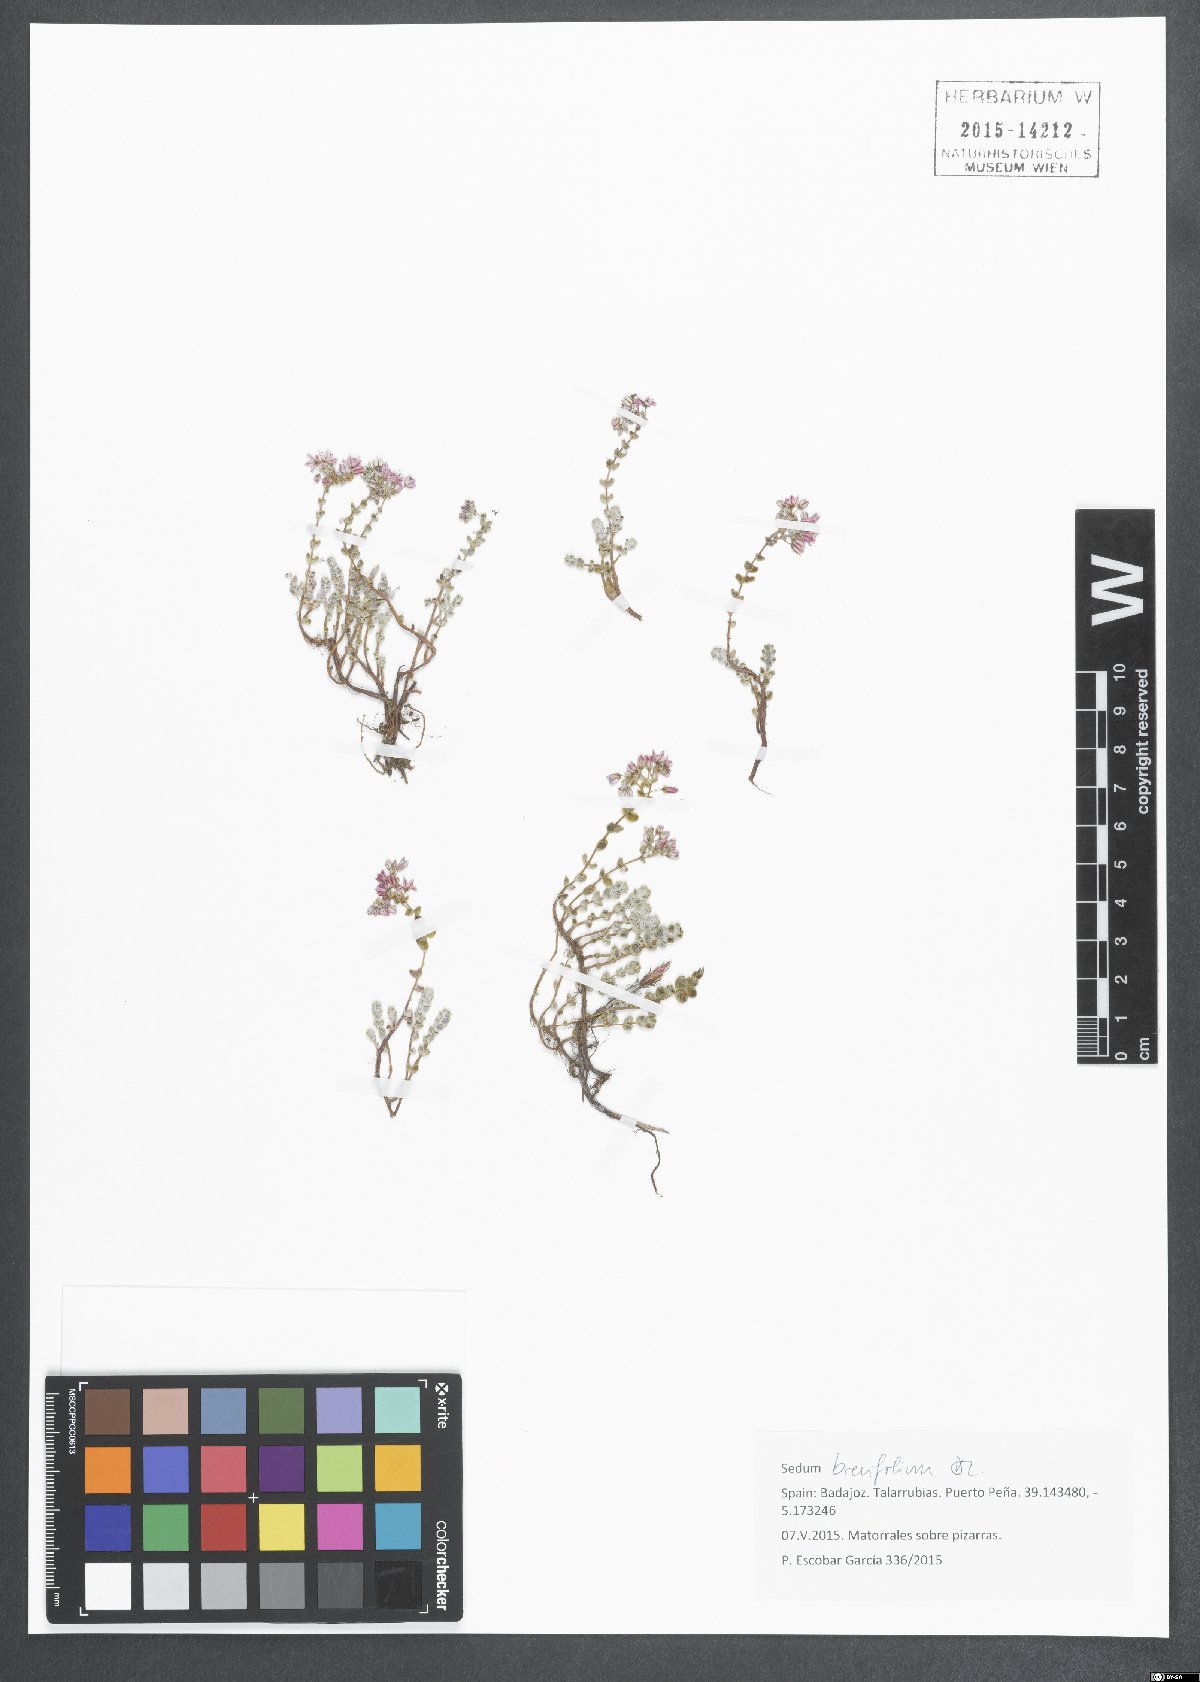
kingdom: Plantae
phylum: Tracheophyta
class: Magnoliopsida
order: Saxifragales
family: Crassulaceae
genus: Sedum
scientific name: Sedum brevifolium
